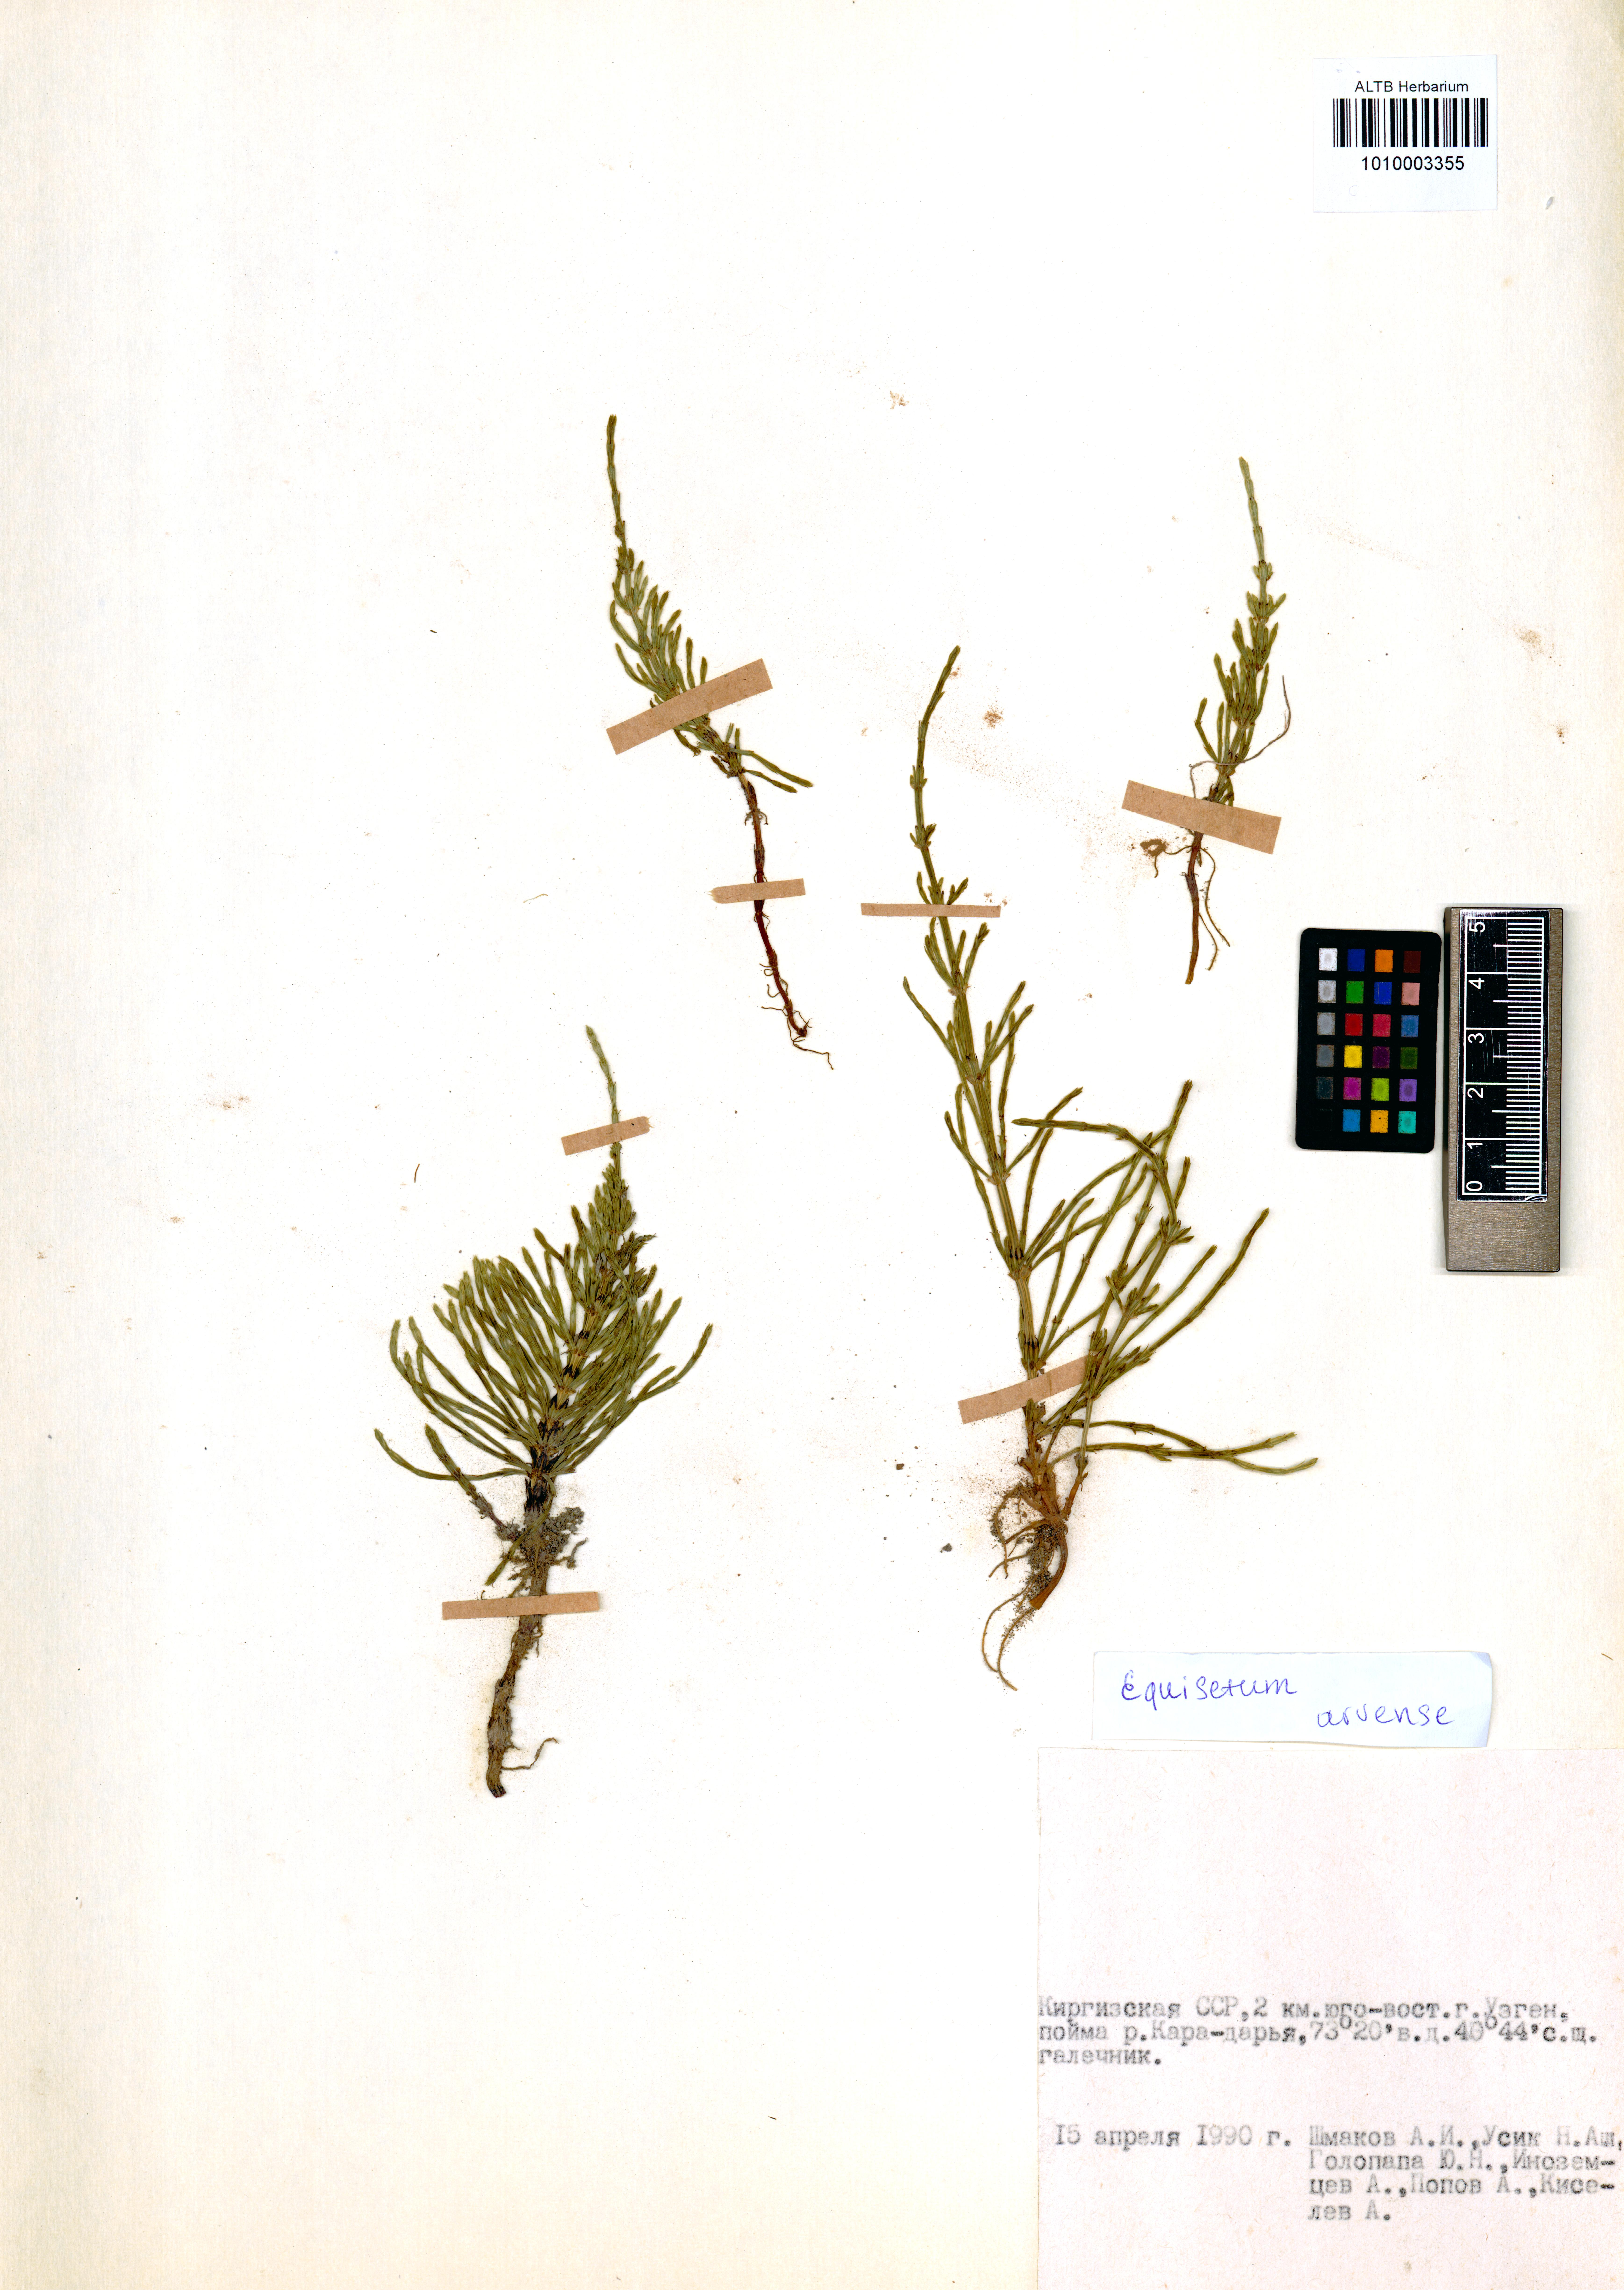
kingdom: Plantae
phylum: Tracheophyta
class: Polypodiopsida
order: Equisetales
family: Equisetaceae
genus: Equisetum
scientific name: Equisetum arvense
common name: Field horsetail
